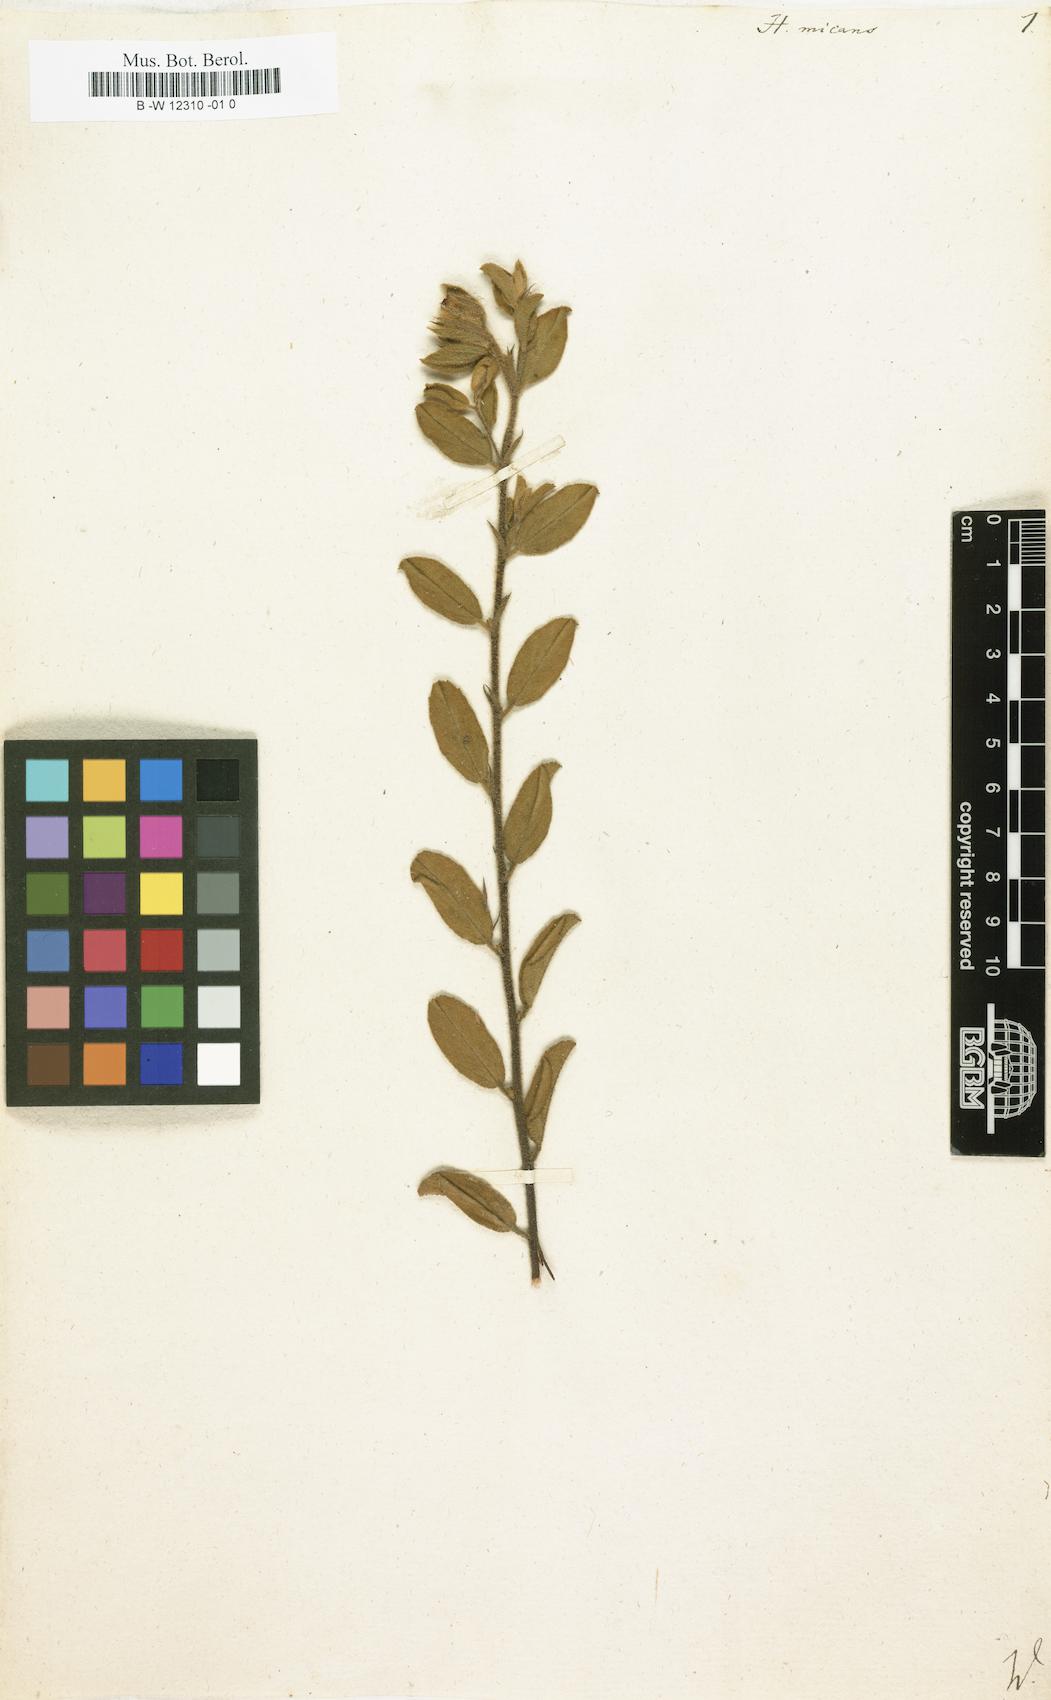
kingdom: Plantae
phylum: Tracheophyta
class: Magnoliopsida
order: Malvales
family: Malvaceae
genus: Hermannia
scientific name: Hermannia salviifolia
